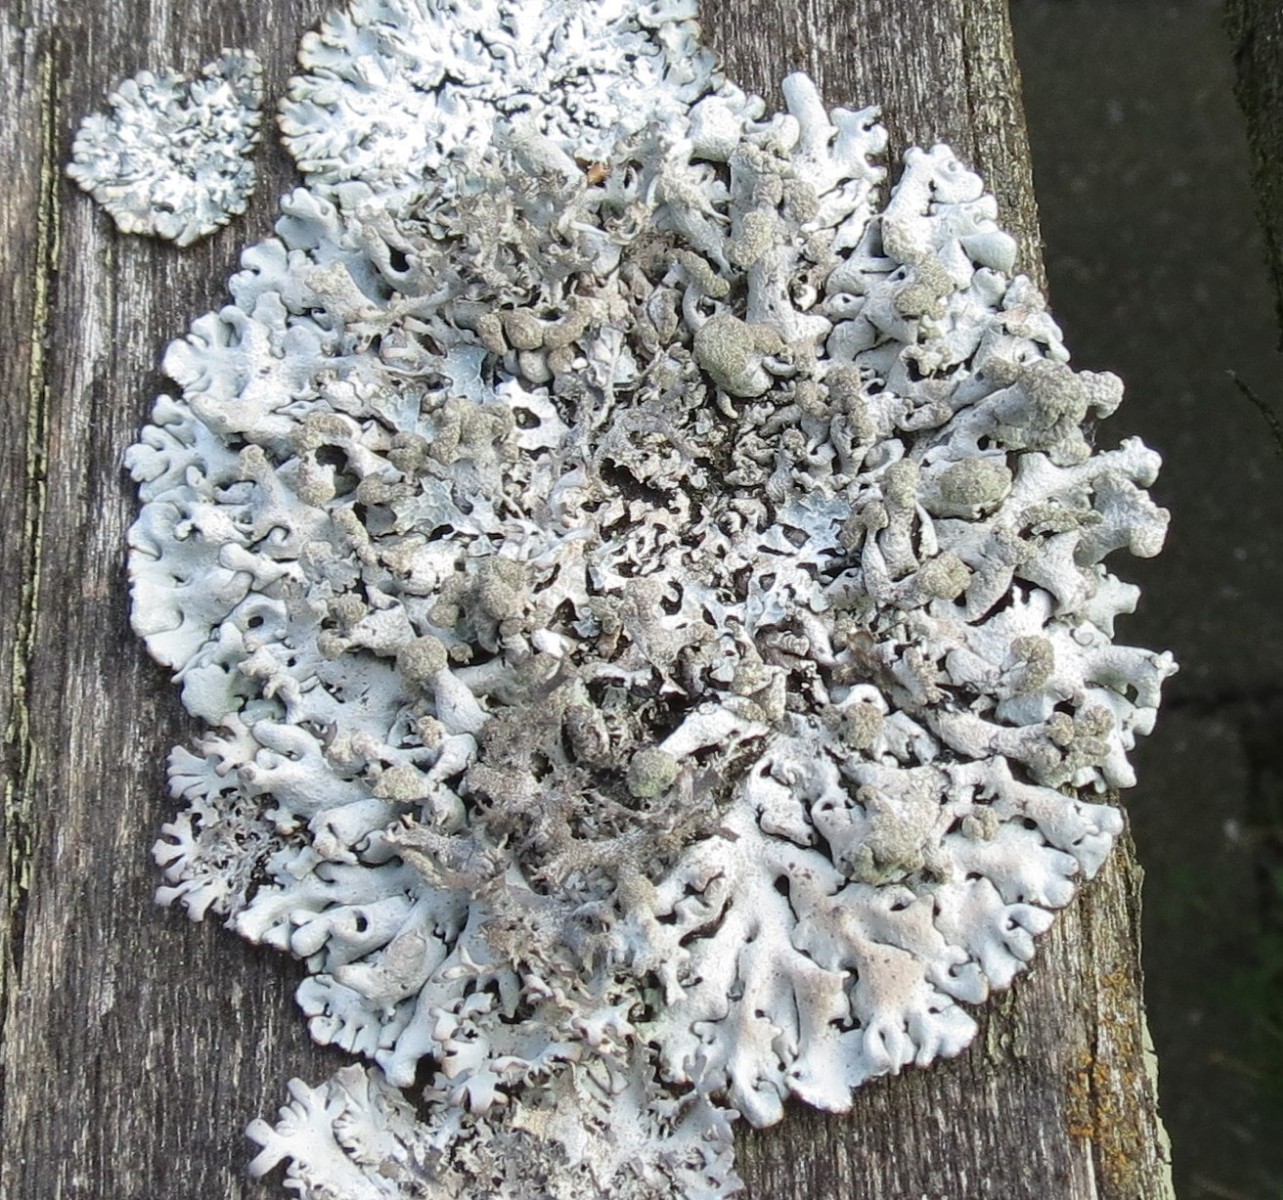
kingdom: Fungi
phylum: Ascomycota
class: Lecanoromycetes
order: Lecanorales
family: Parmeliaceae
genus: Hypogymnia
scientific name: Hypogymnia tubulosa
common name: finger-kvistlav
